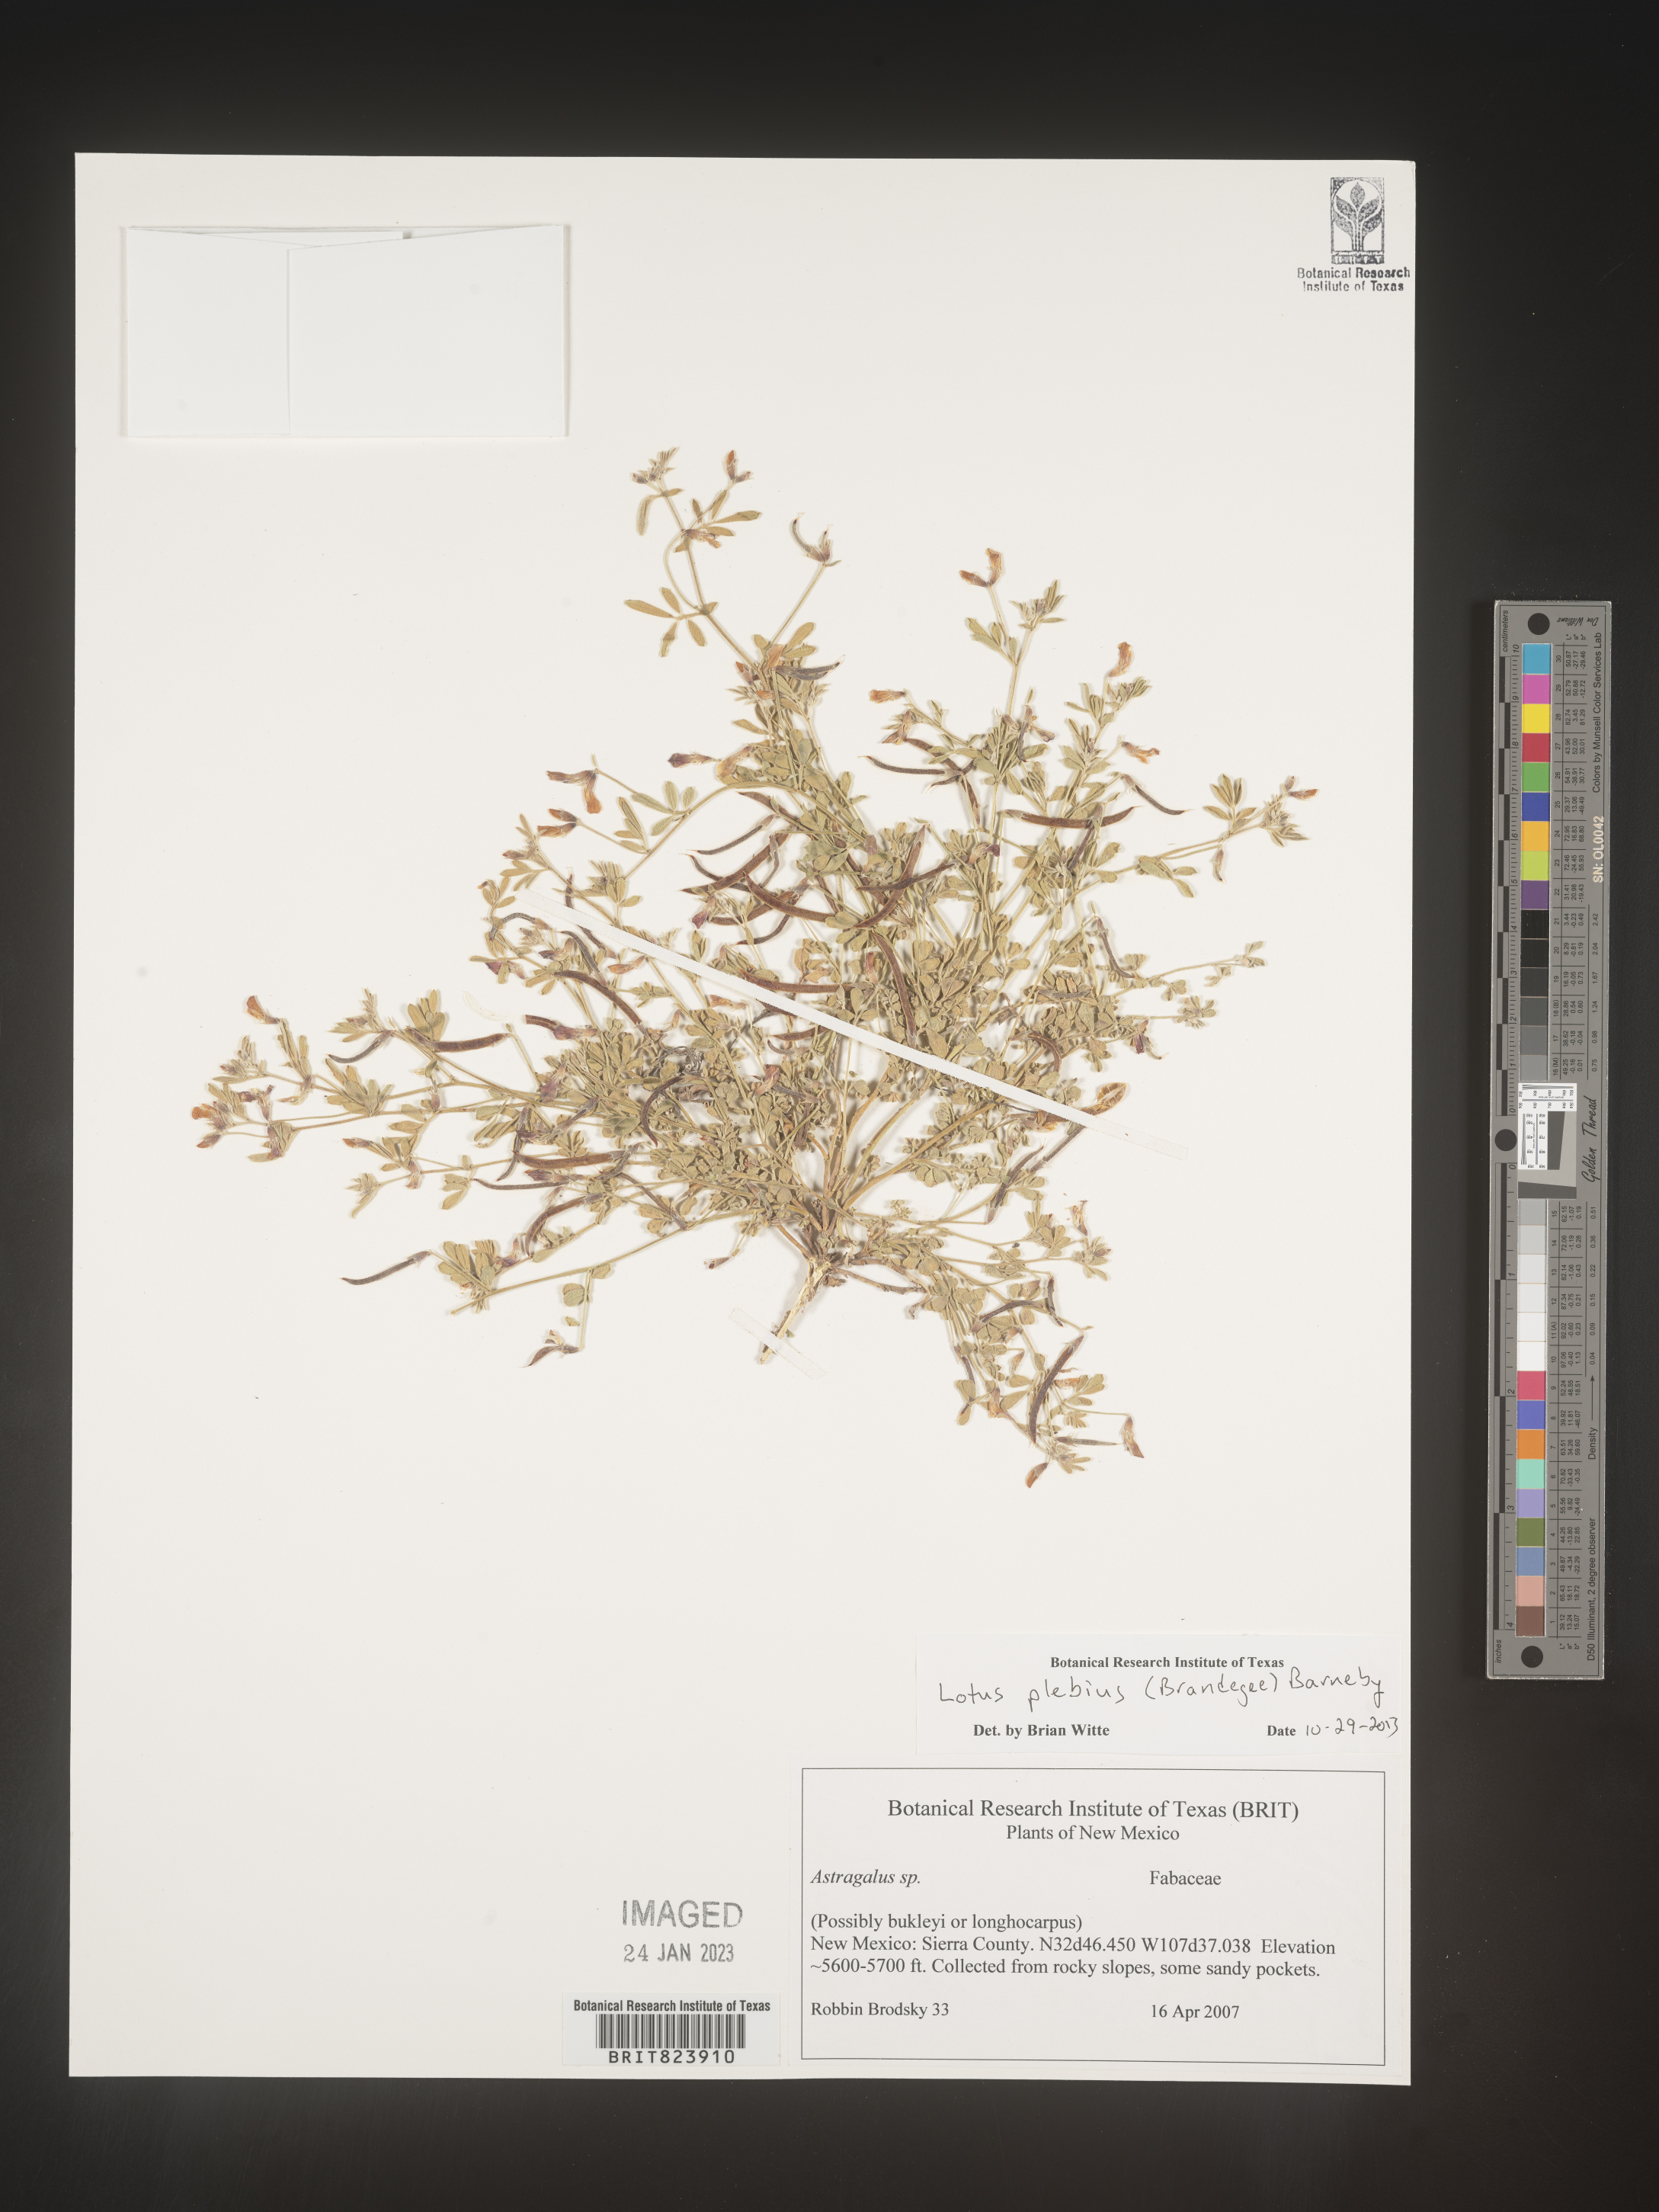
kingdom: Plantae
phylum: Tracheophyta
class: Magnoliopsida
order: Fabales
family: Fabaceae
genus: Lotus
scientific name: Lotus
